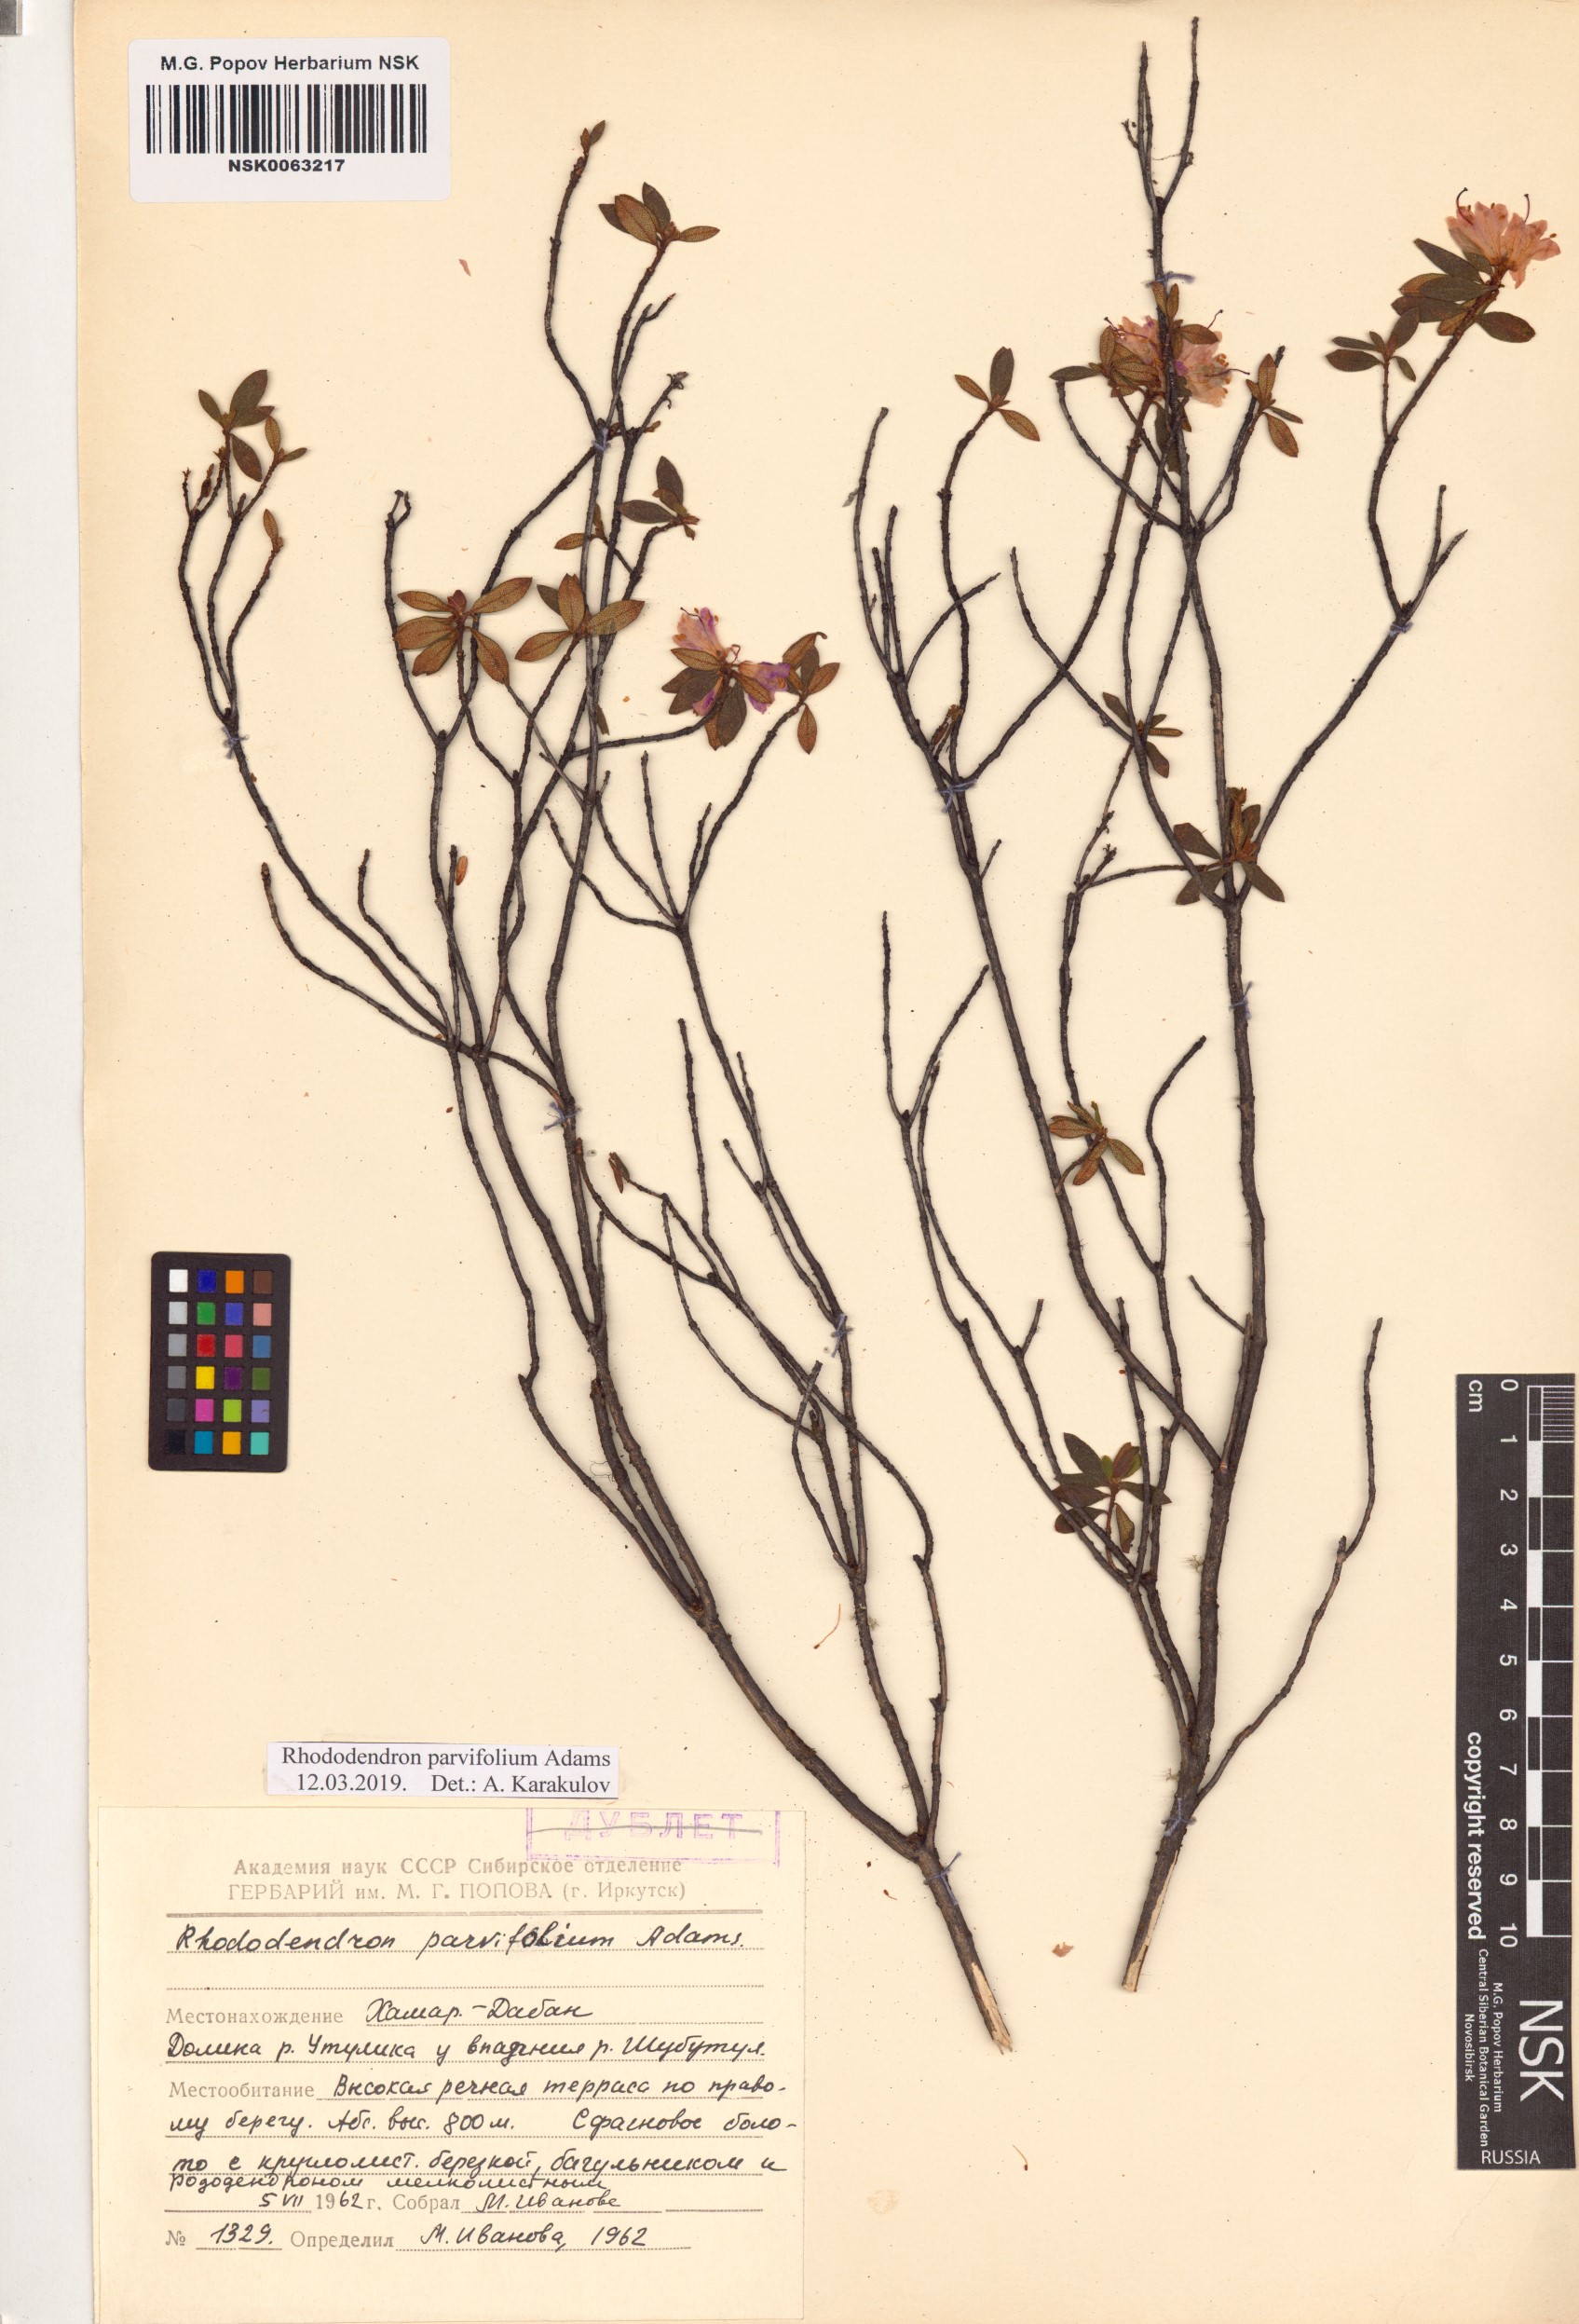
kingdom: Plantae
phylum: Tracheophyta
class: Magnoliopsida
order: Ericales
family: Ericaceae
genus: Rhododendron
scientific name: Rhododendron parvifolium
